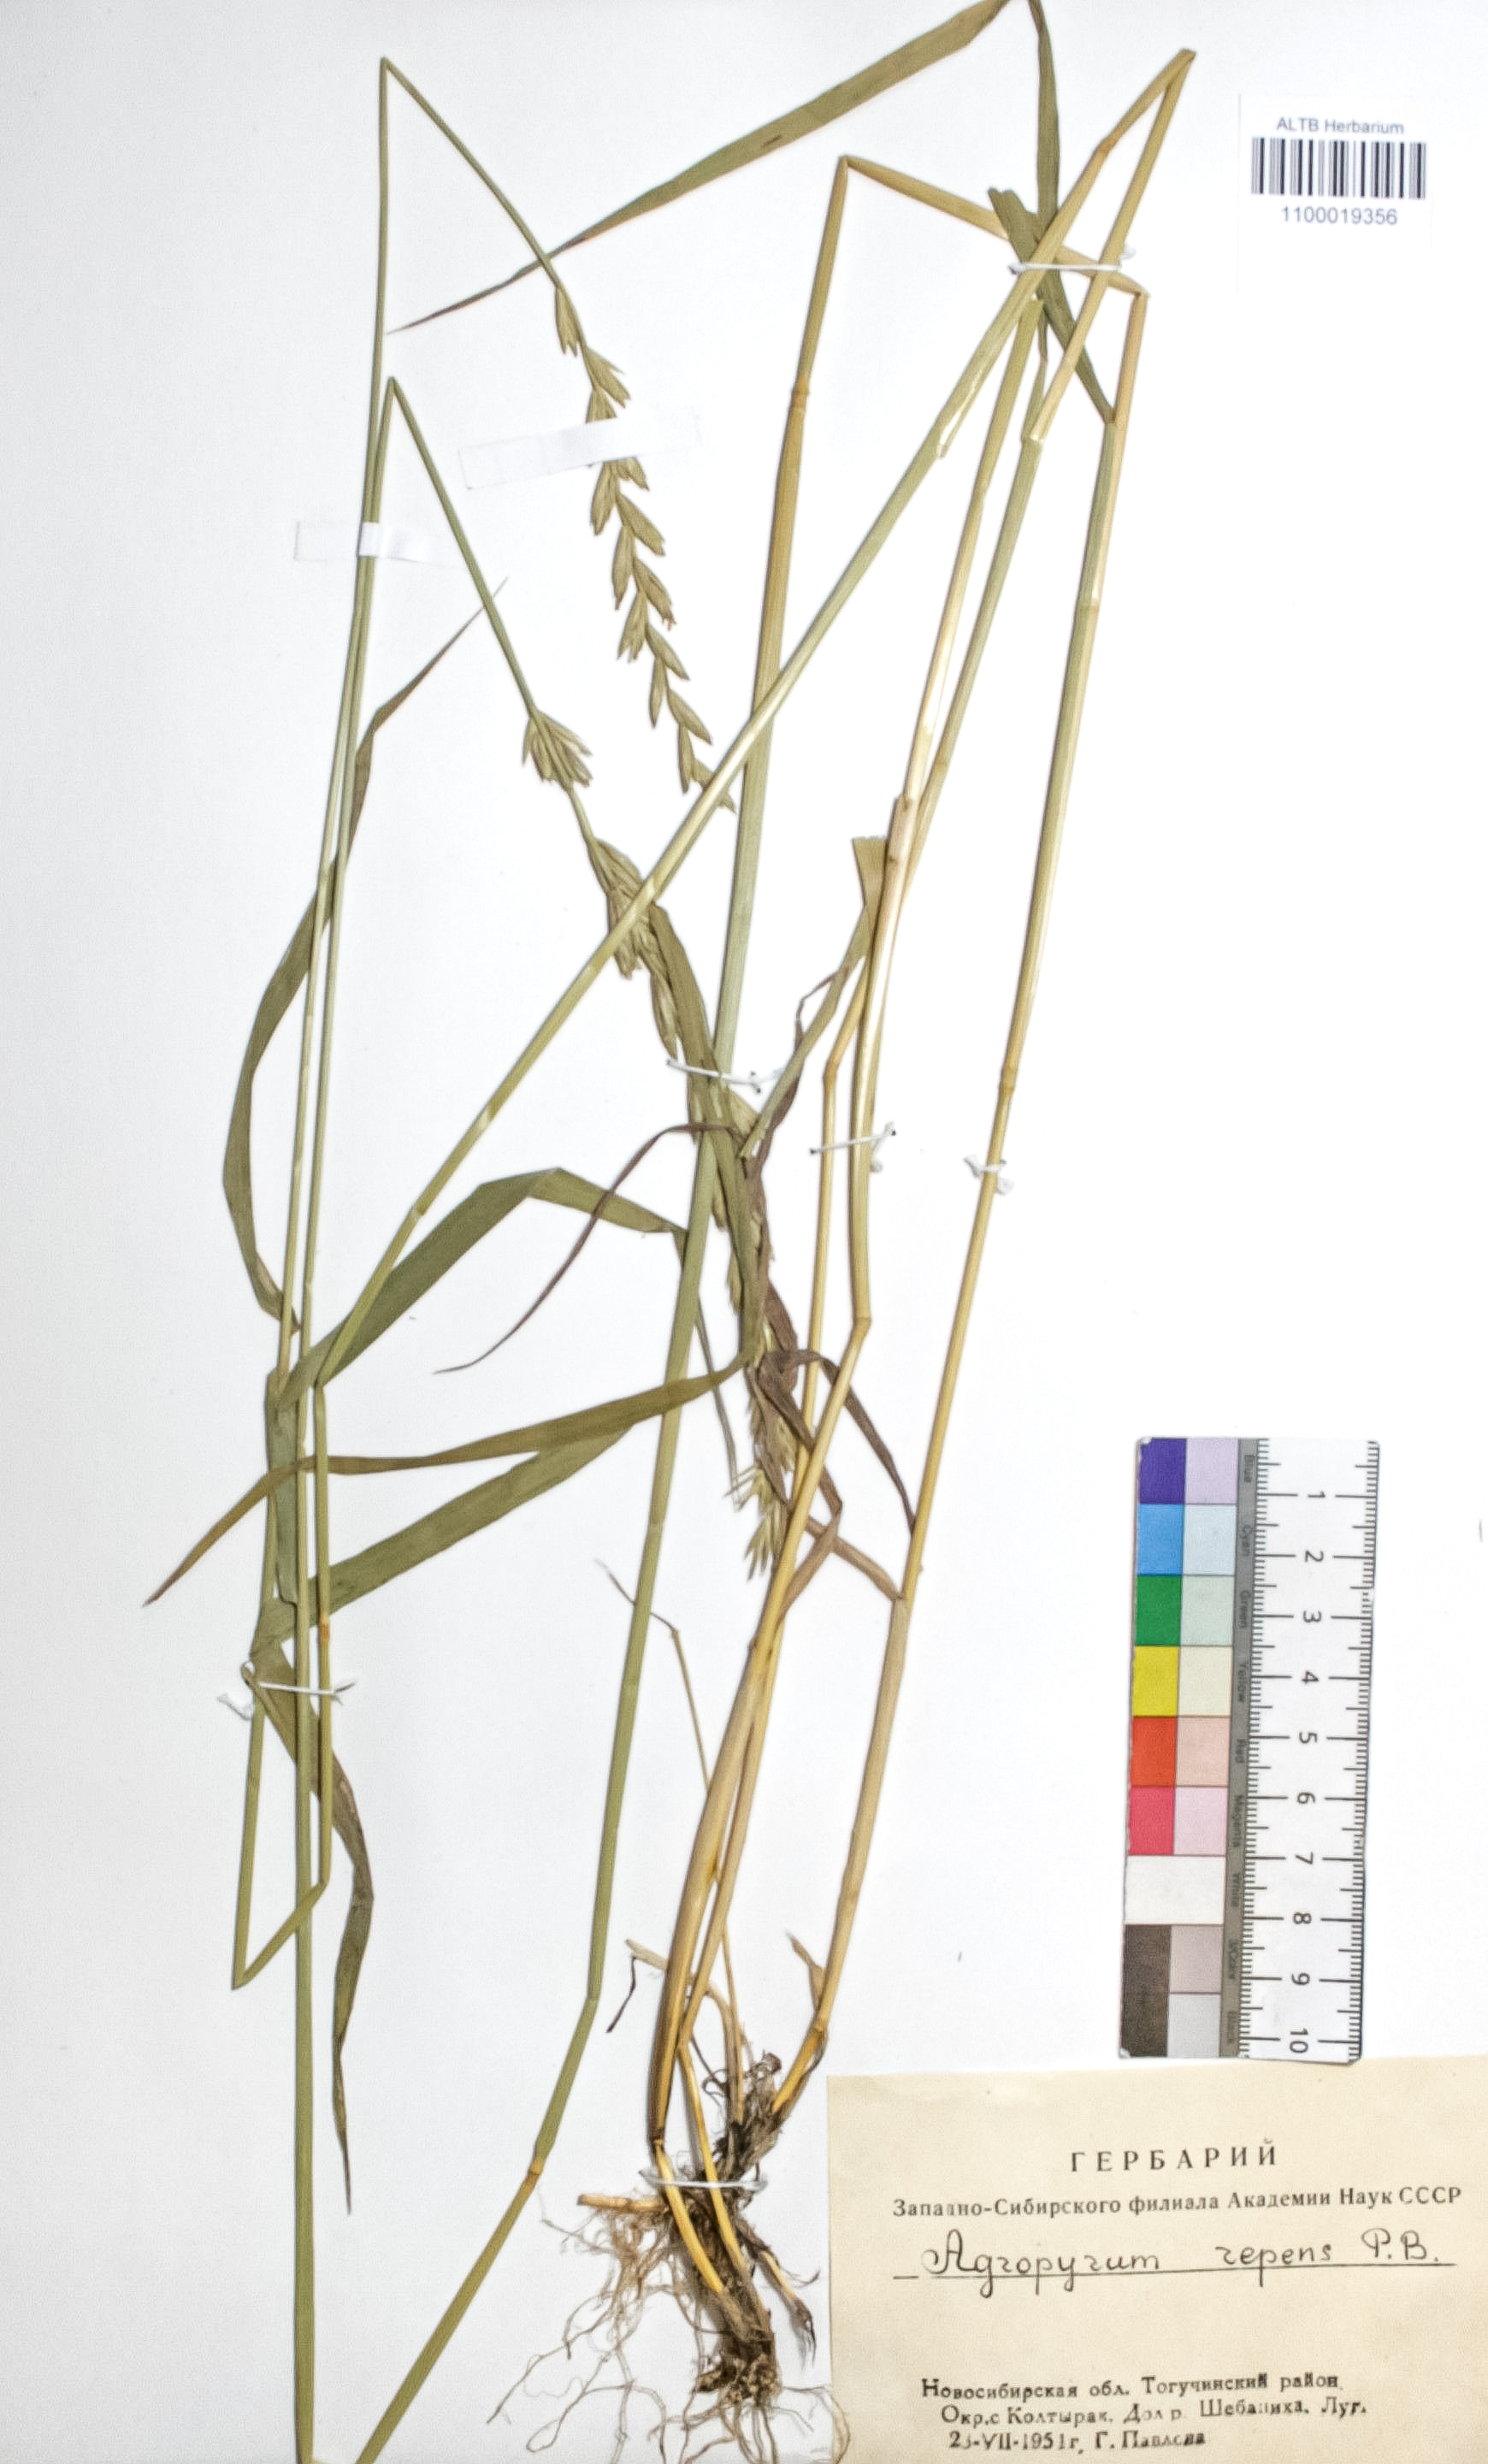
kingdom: Plantae
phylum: Tracheophyta
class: Liliopsida
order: Poales
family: Poaceae
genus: Elymus
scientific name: Elymus repens
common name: Quackgrass
